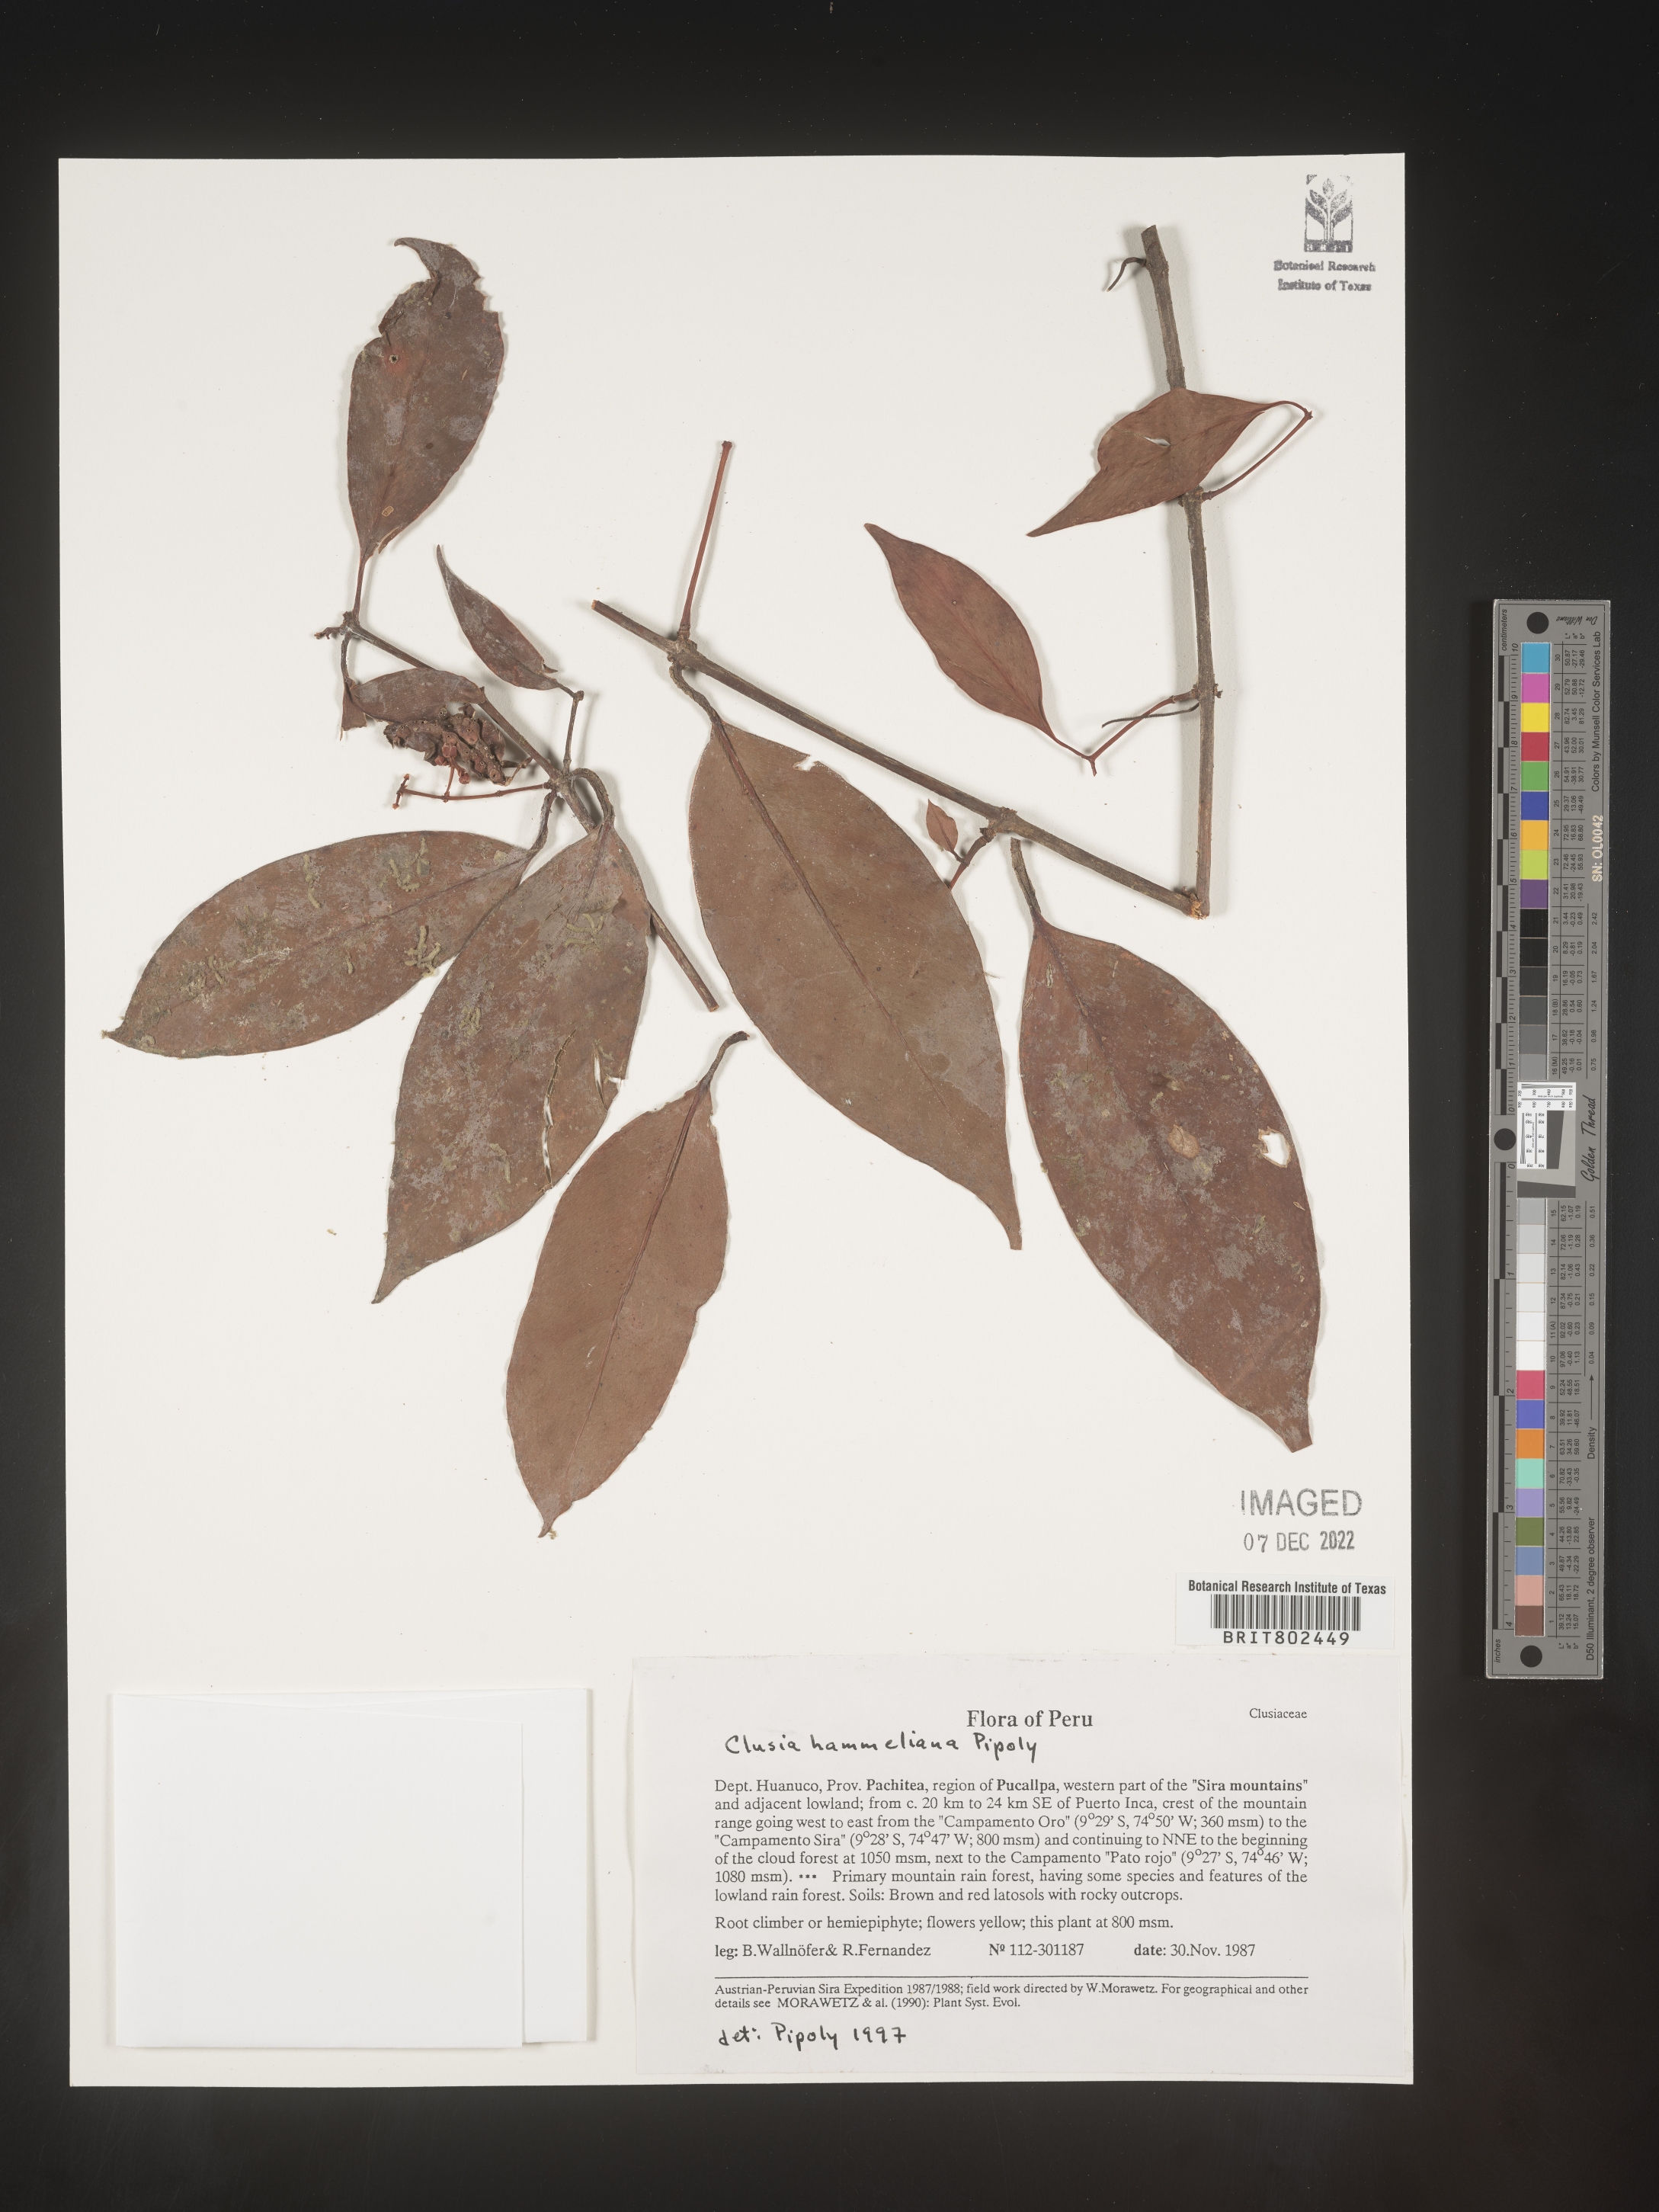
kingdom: Plantae
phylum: Tracheophyta
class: Magnoliopsida
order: Malpighiales
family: Clusiaceae
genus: Clusia
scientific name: Clusia hammeliana
